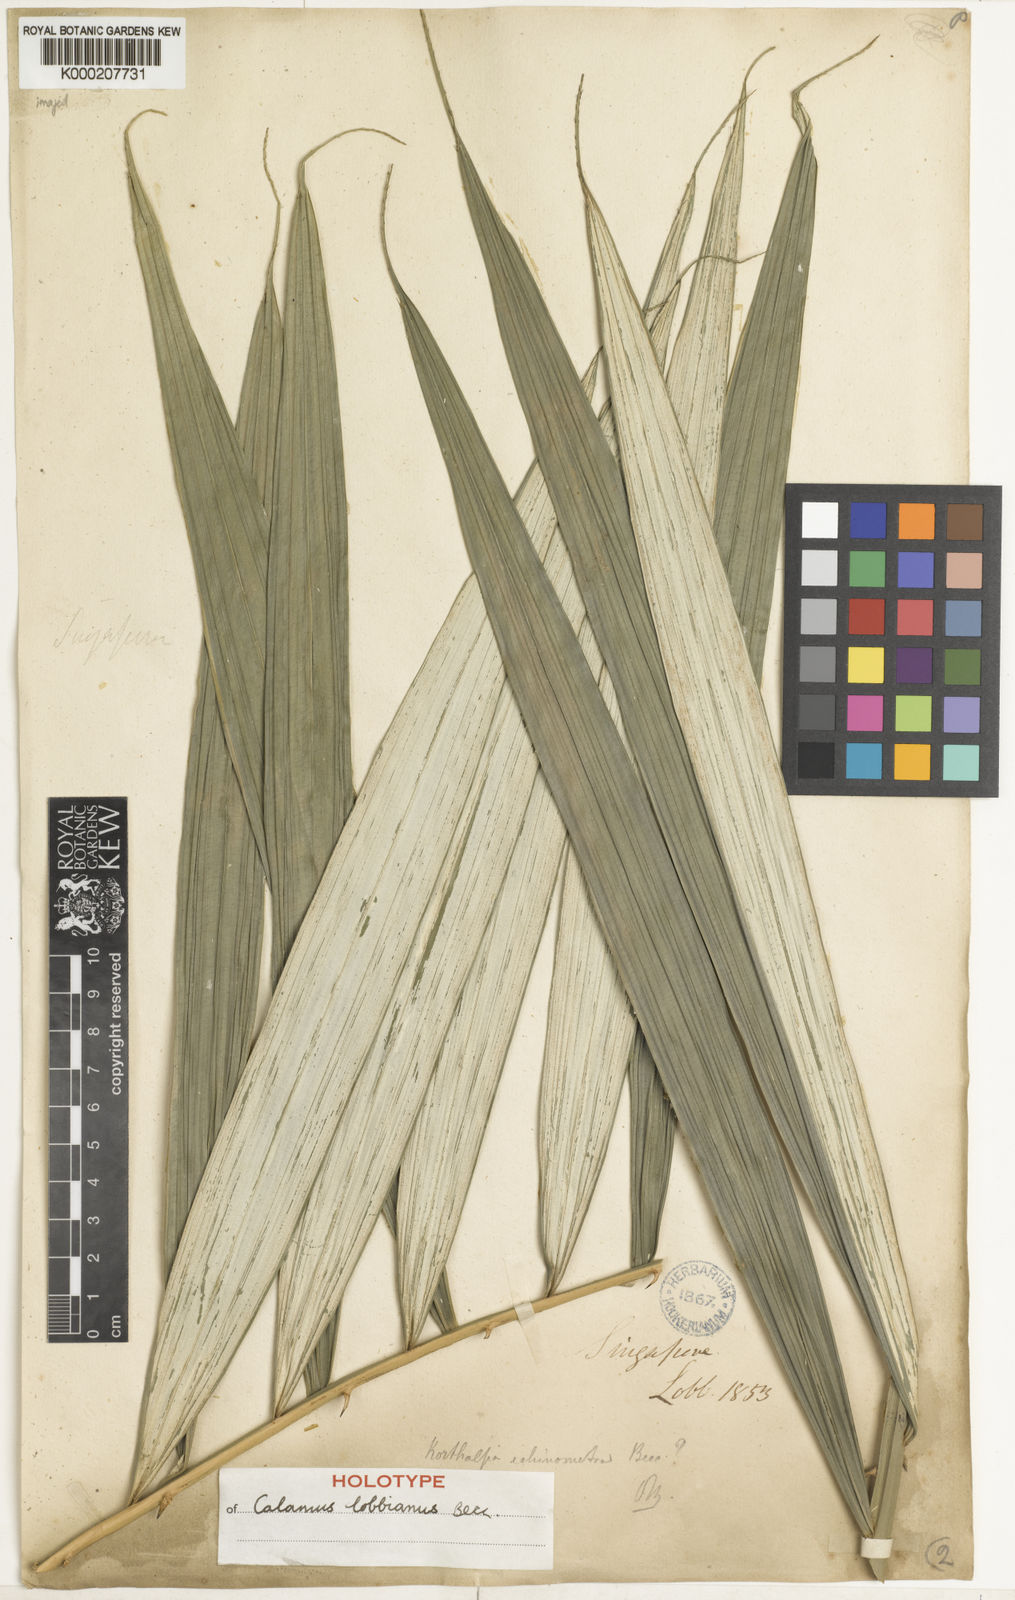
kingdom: Plantae
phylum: Tracheophyta
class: Liliopsida
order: Arecales
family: Arecaceae
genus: Calamus
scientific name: Calamus lobbianus
